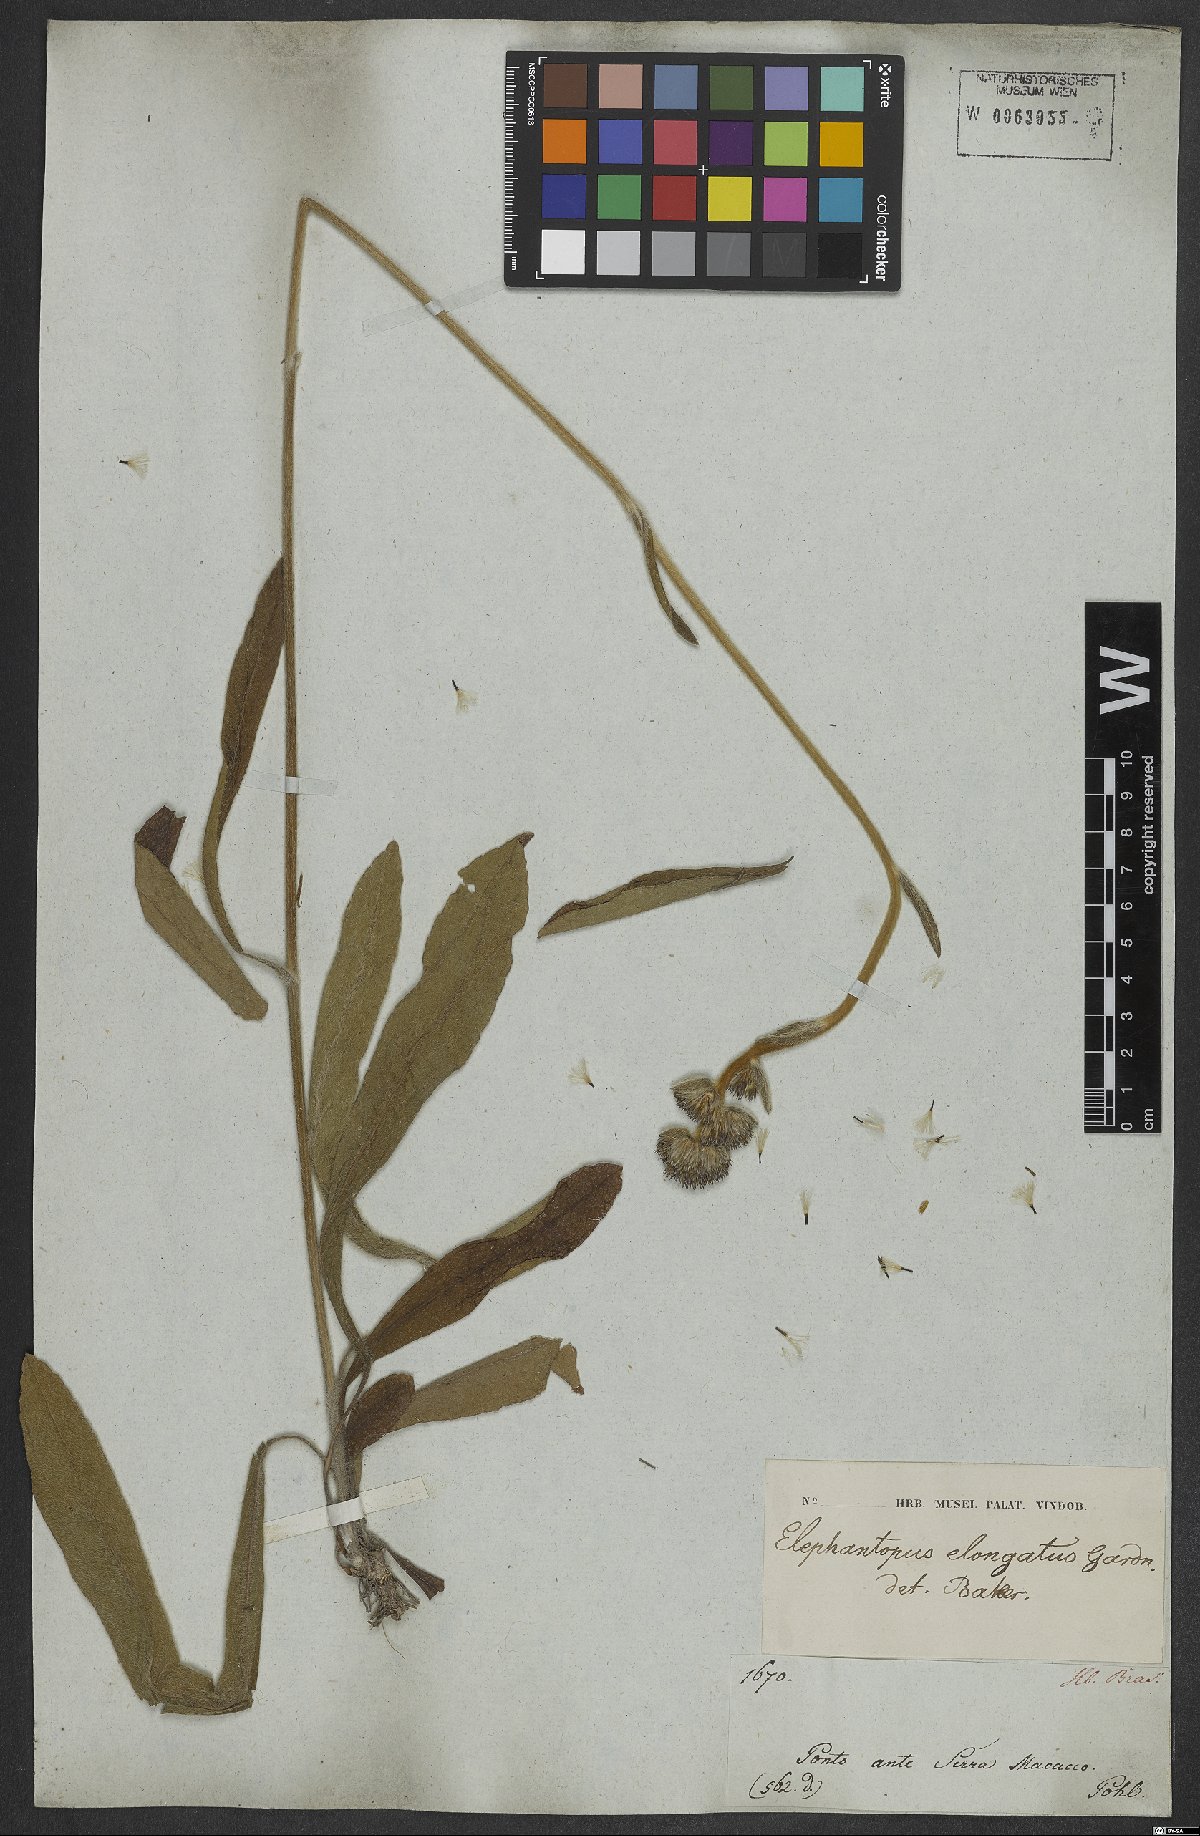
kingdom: Plantae
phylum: Tracheophyta
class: Magnoliopsida
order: Asterales
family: Asteraceae
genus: Elephantopus
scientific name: Elephantopus elongatus
